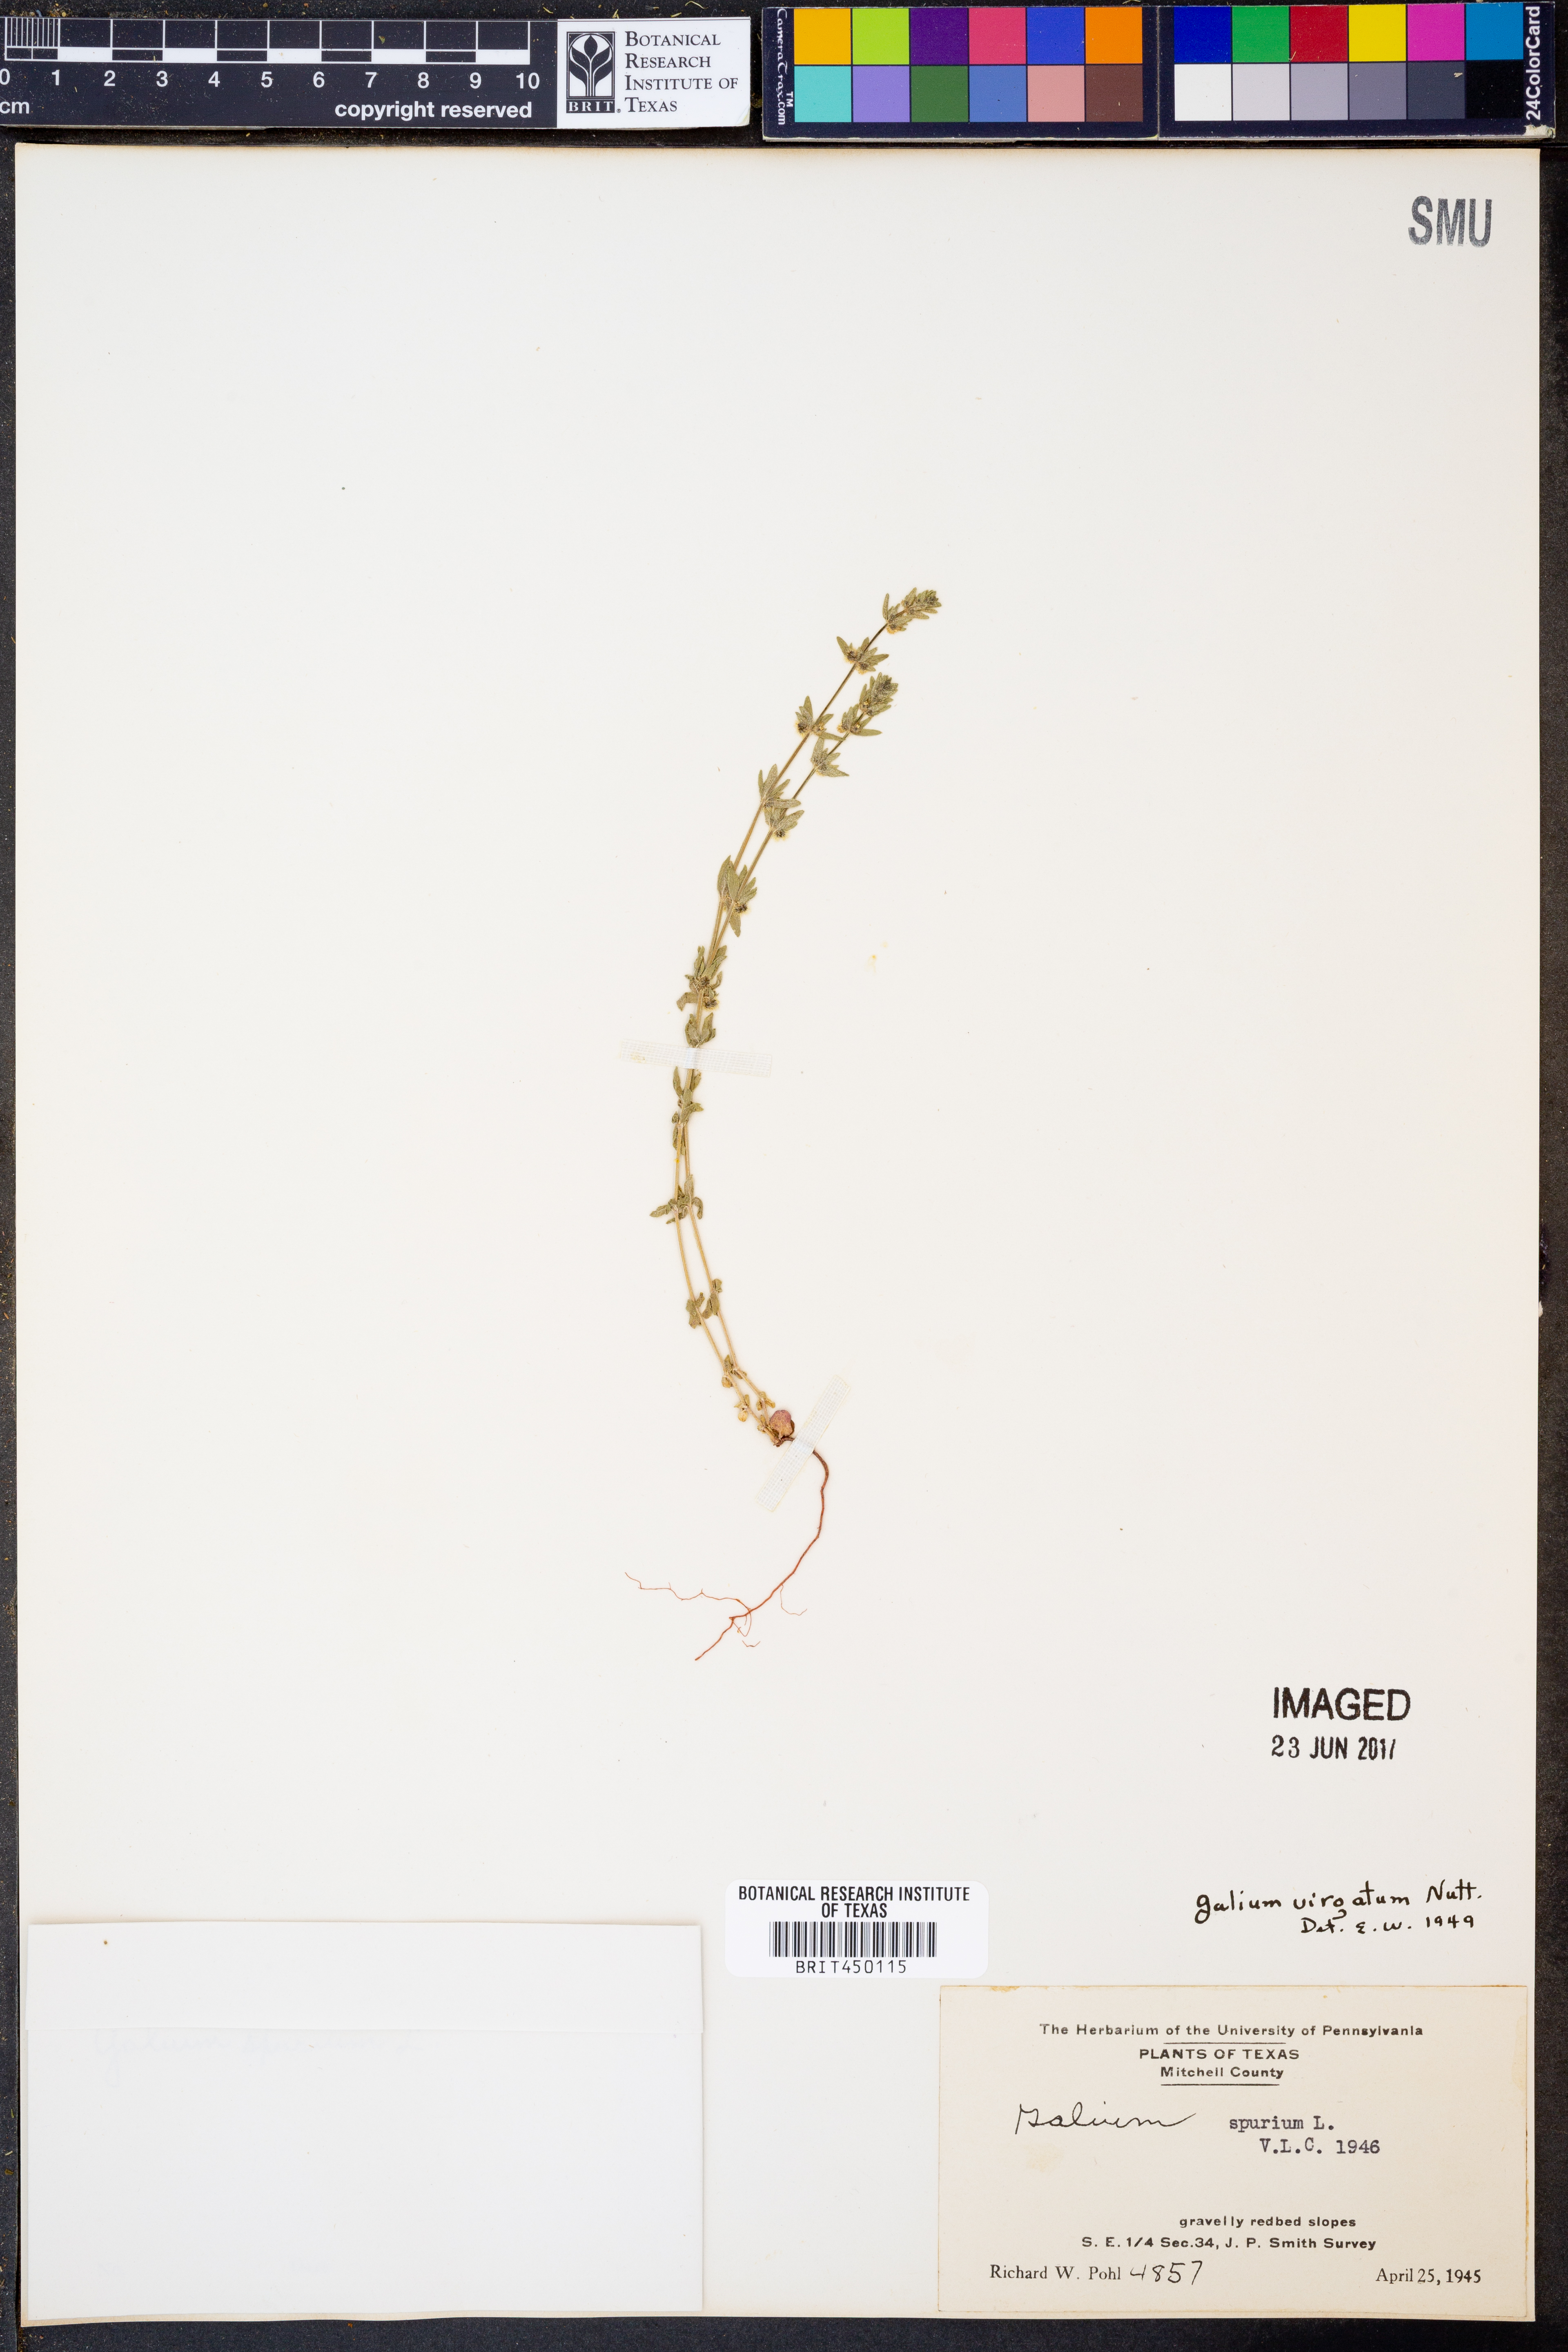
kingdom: Plantae
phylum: Tracheophyta
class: Magnoliopsida
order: Gentianales
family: Rubiaceae
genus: Galium
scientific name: Galium virgatum
